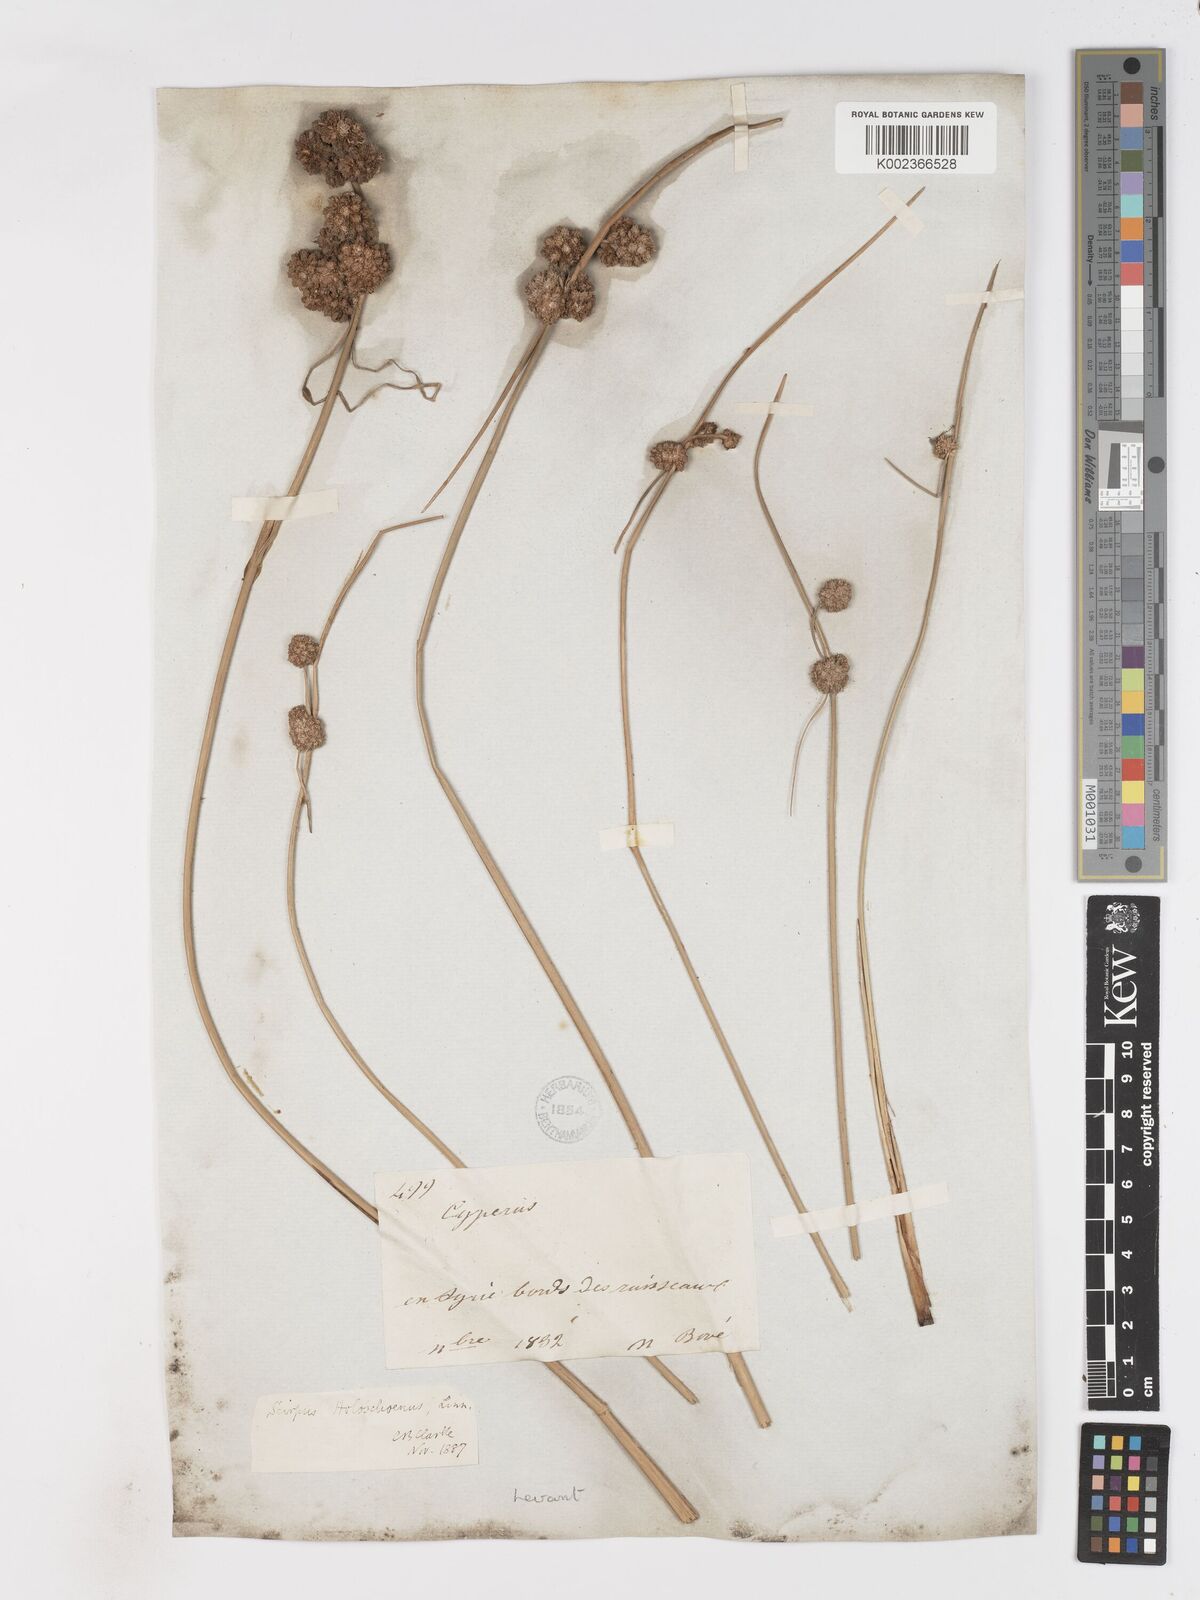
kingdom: Plantae
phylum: Tracheophyta
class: Liliopsida
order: Poales
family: Cyperaceae
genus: Scirpoides
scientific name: Scirpoides holoschoenus
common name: Round-headed club-rush
